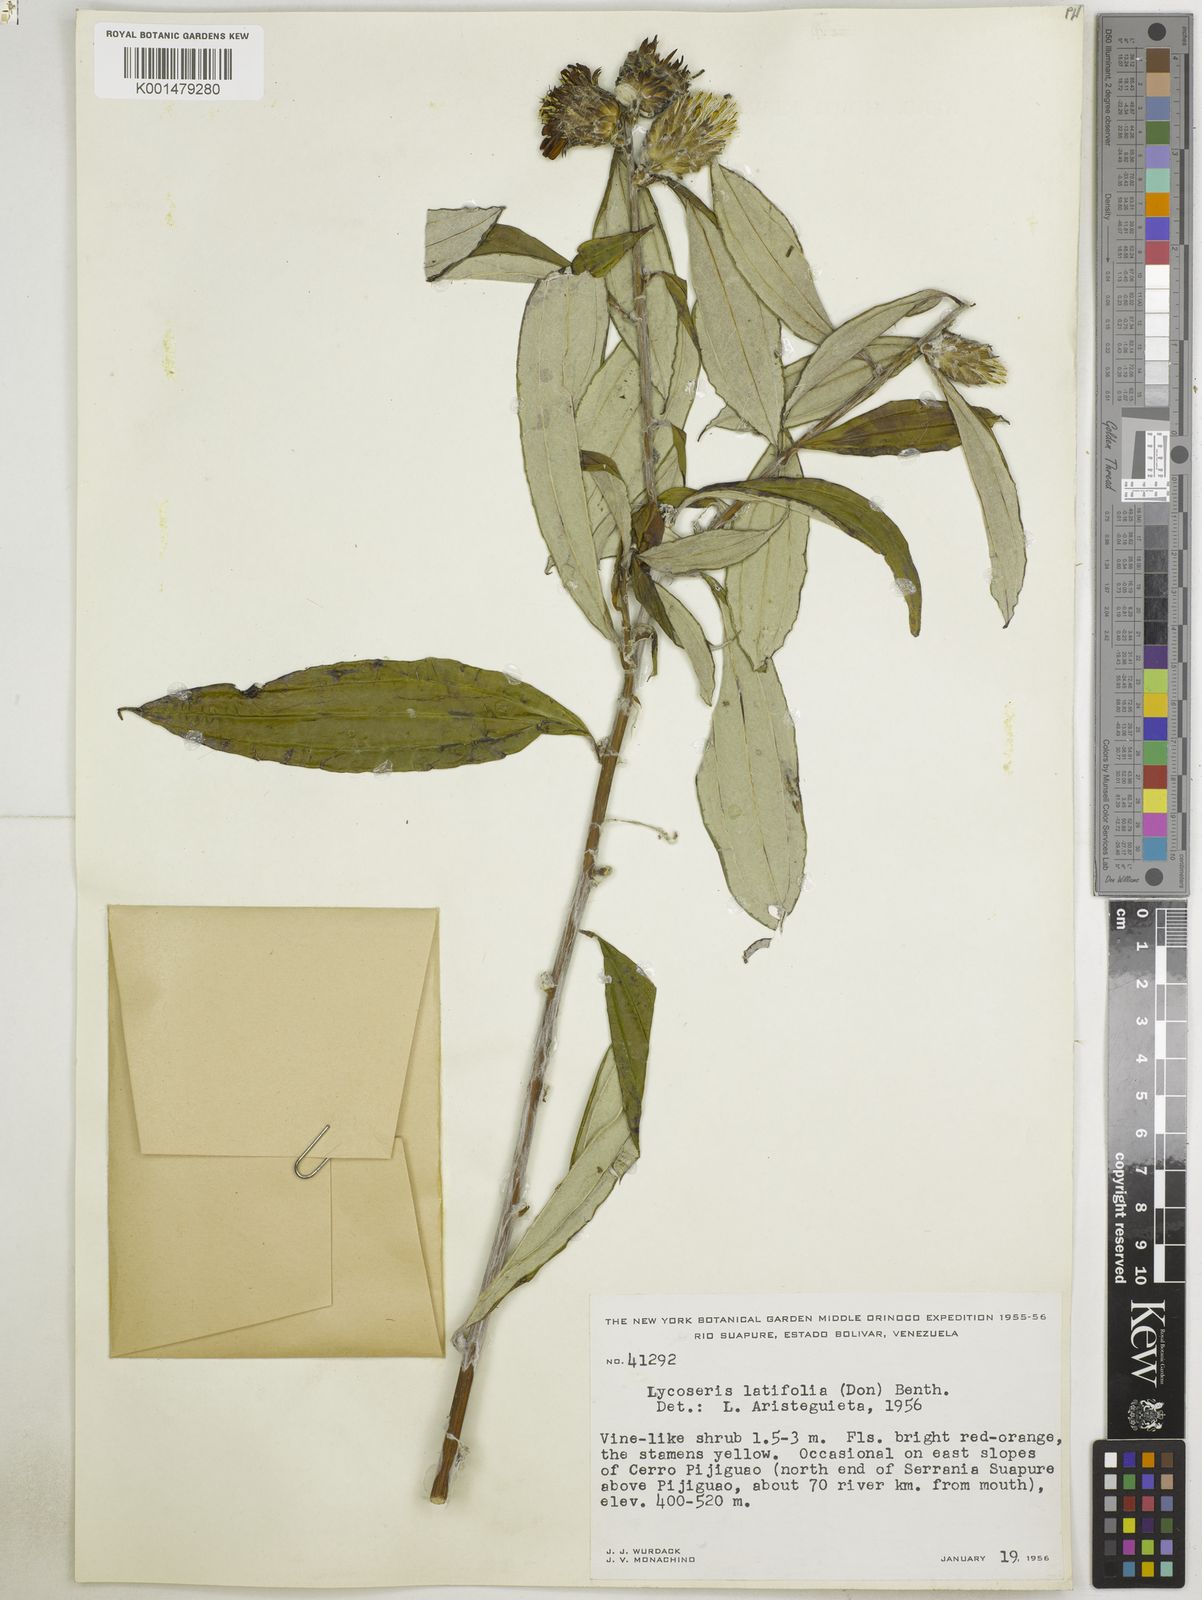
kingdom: Plantae
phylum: Tracheophyta
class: Magnoliopsida
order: Asterales
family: Asteraceae
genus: Lycoseris
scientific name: Lycoseris triplinervia
